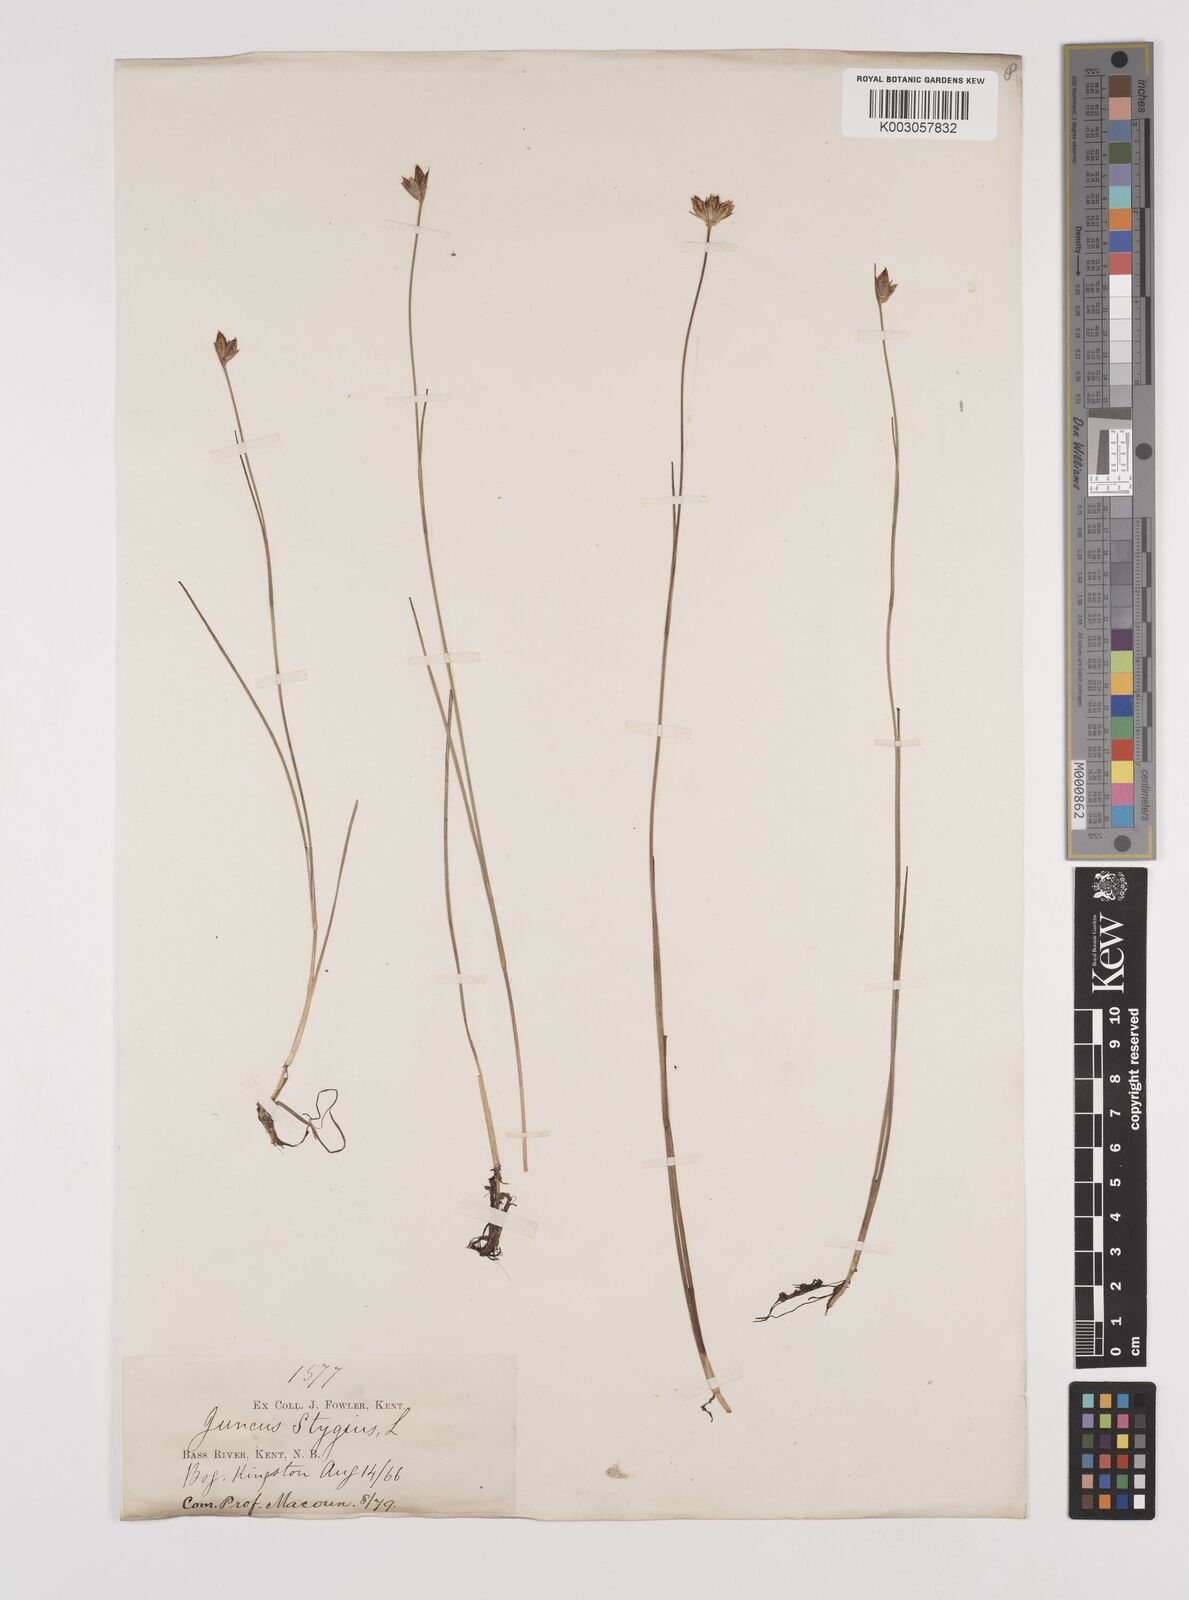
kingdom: Plantae
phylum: Tracheophyta
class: Liliopsida
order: Poales
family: Juncaceae
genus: Juncus
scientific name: Juncus stygius
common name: Bog rush
